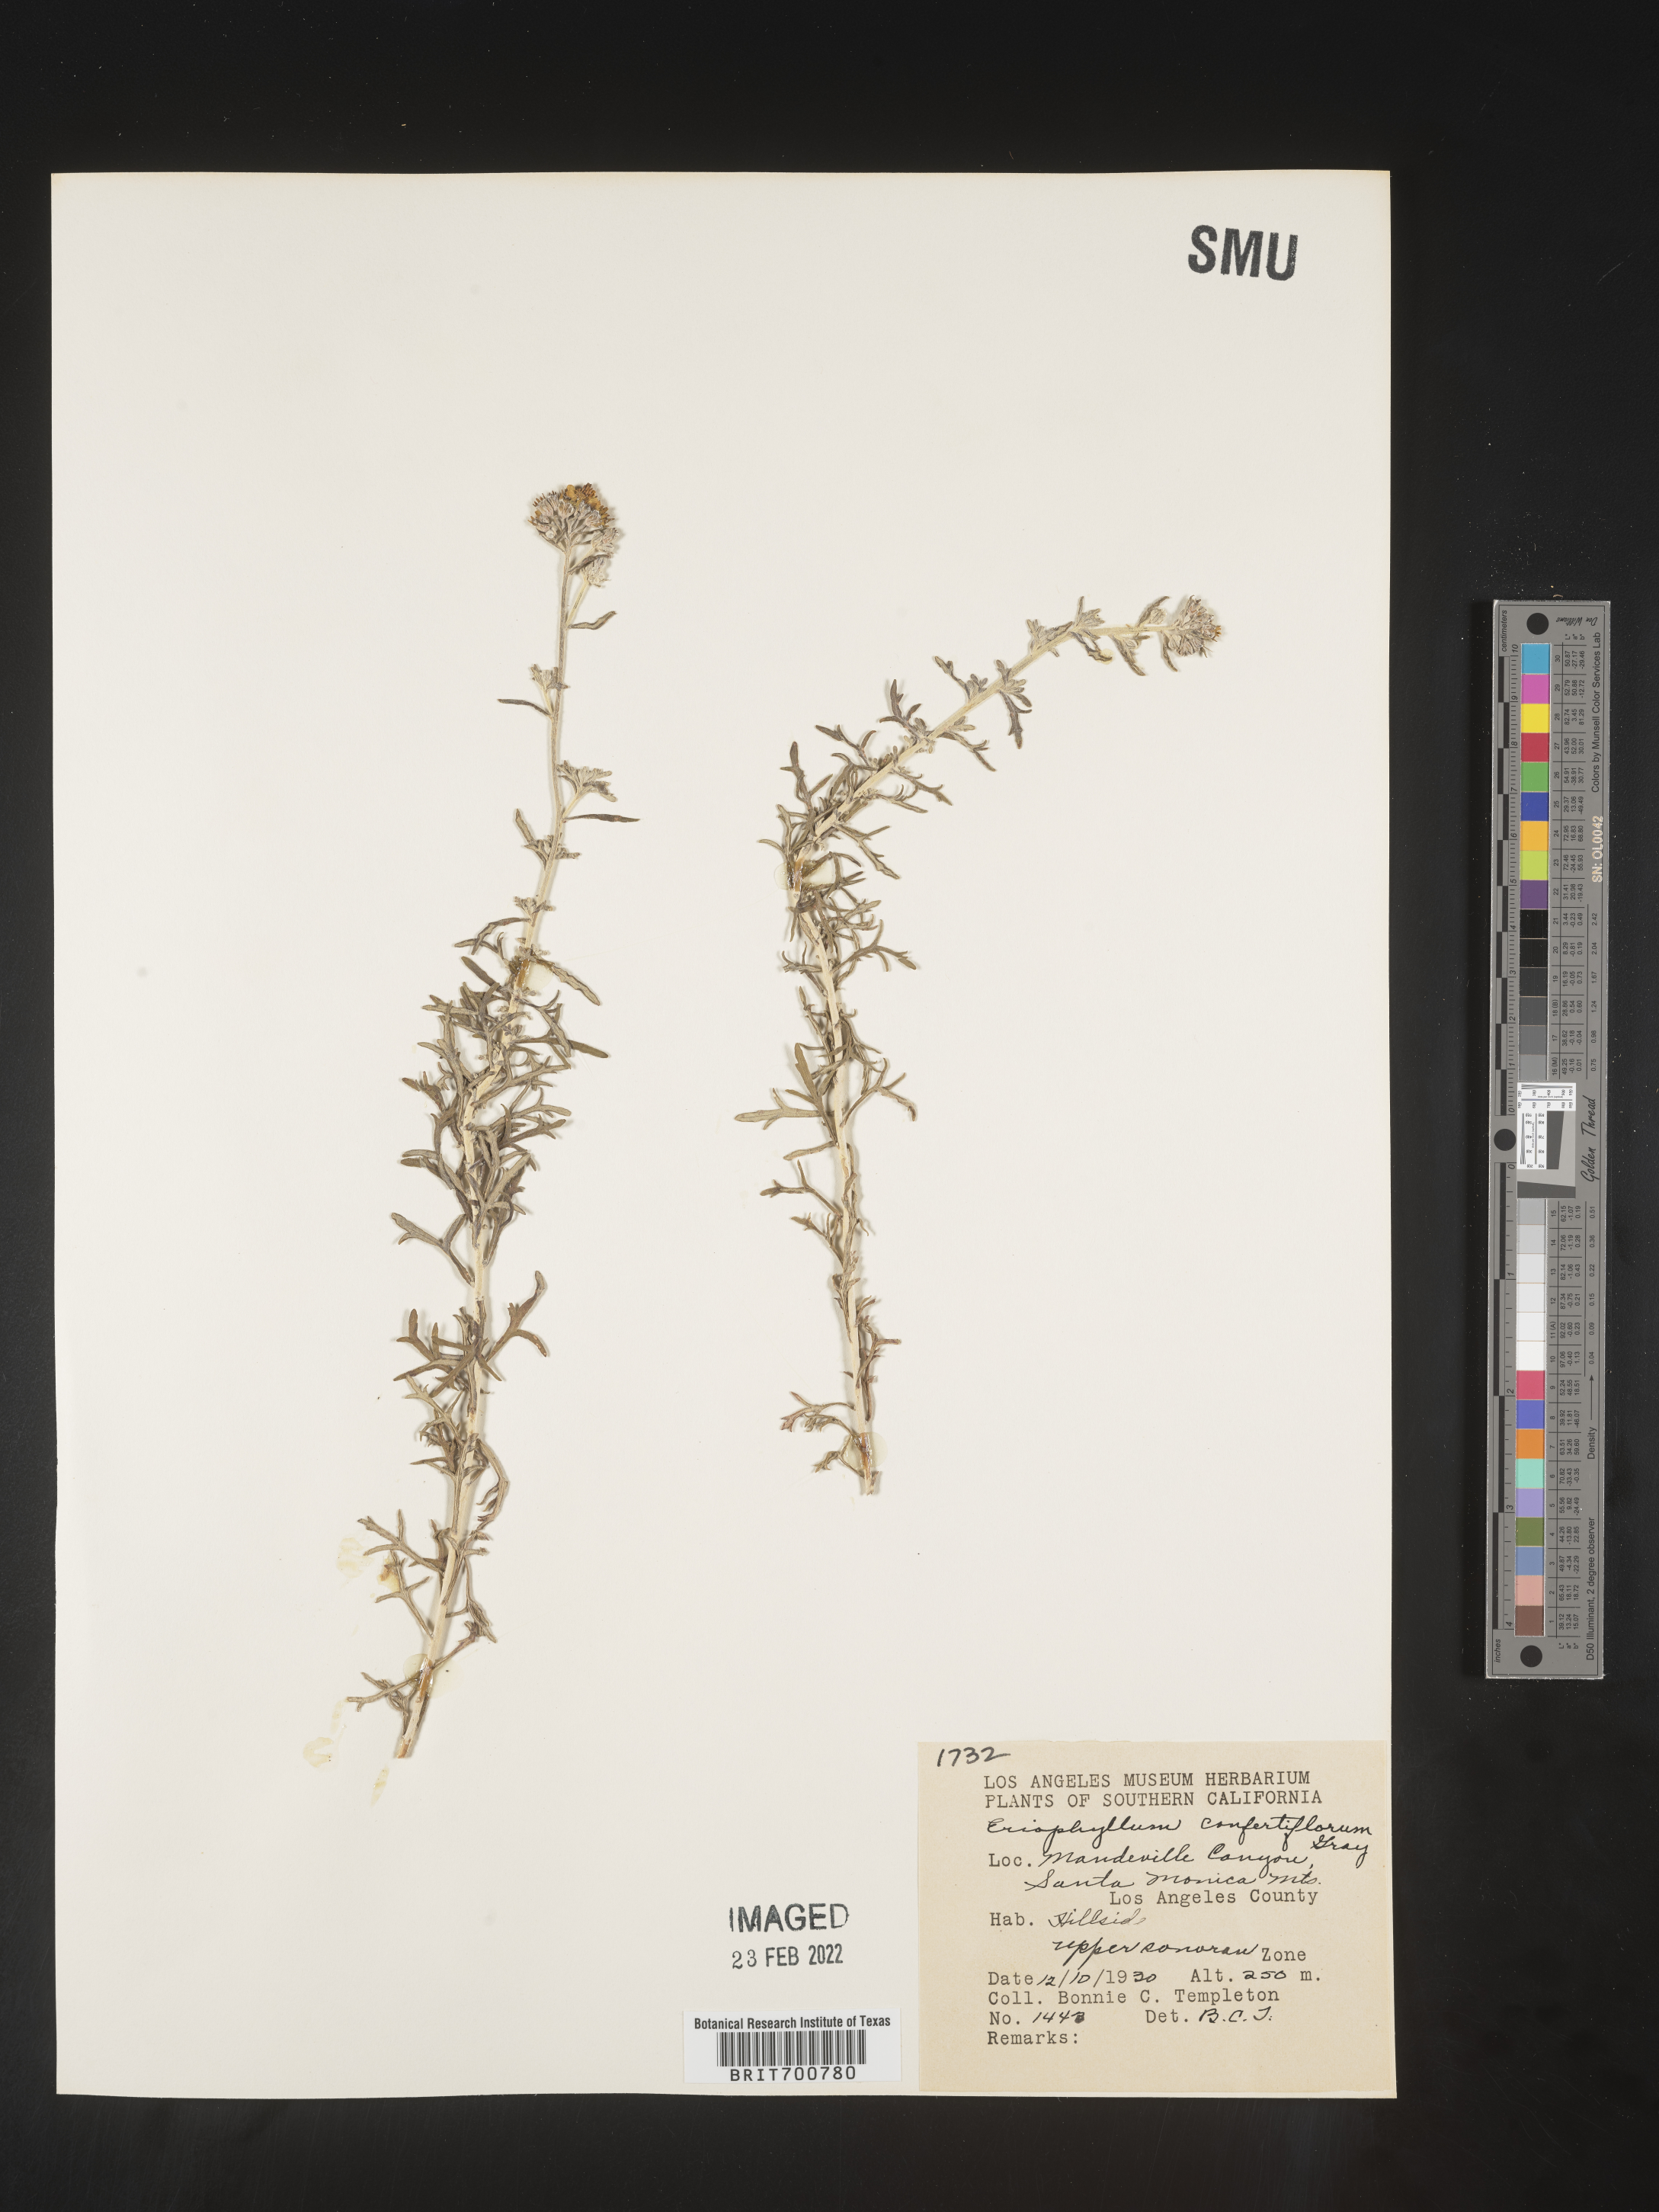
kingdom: Plantae
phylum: Tracheophyta
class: Magnoliopsida
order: Asterales
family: Asteraceae
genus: Eriophyllum
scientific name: Eriophyllum confertiflorum
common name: Golden-yarrow
